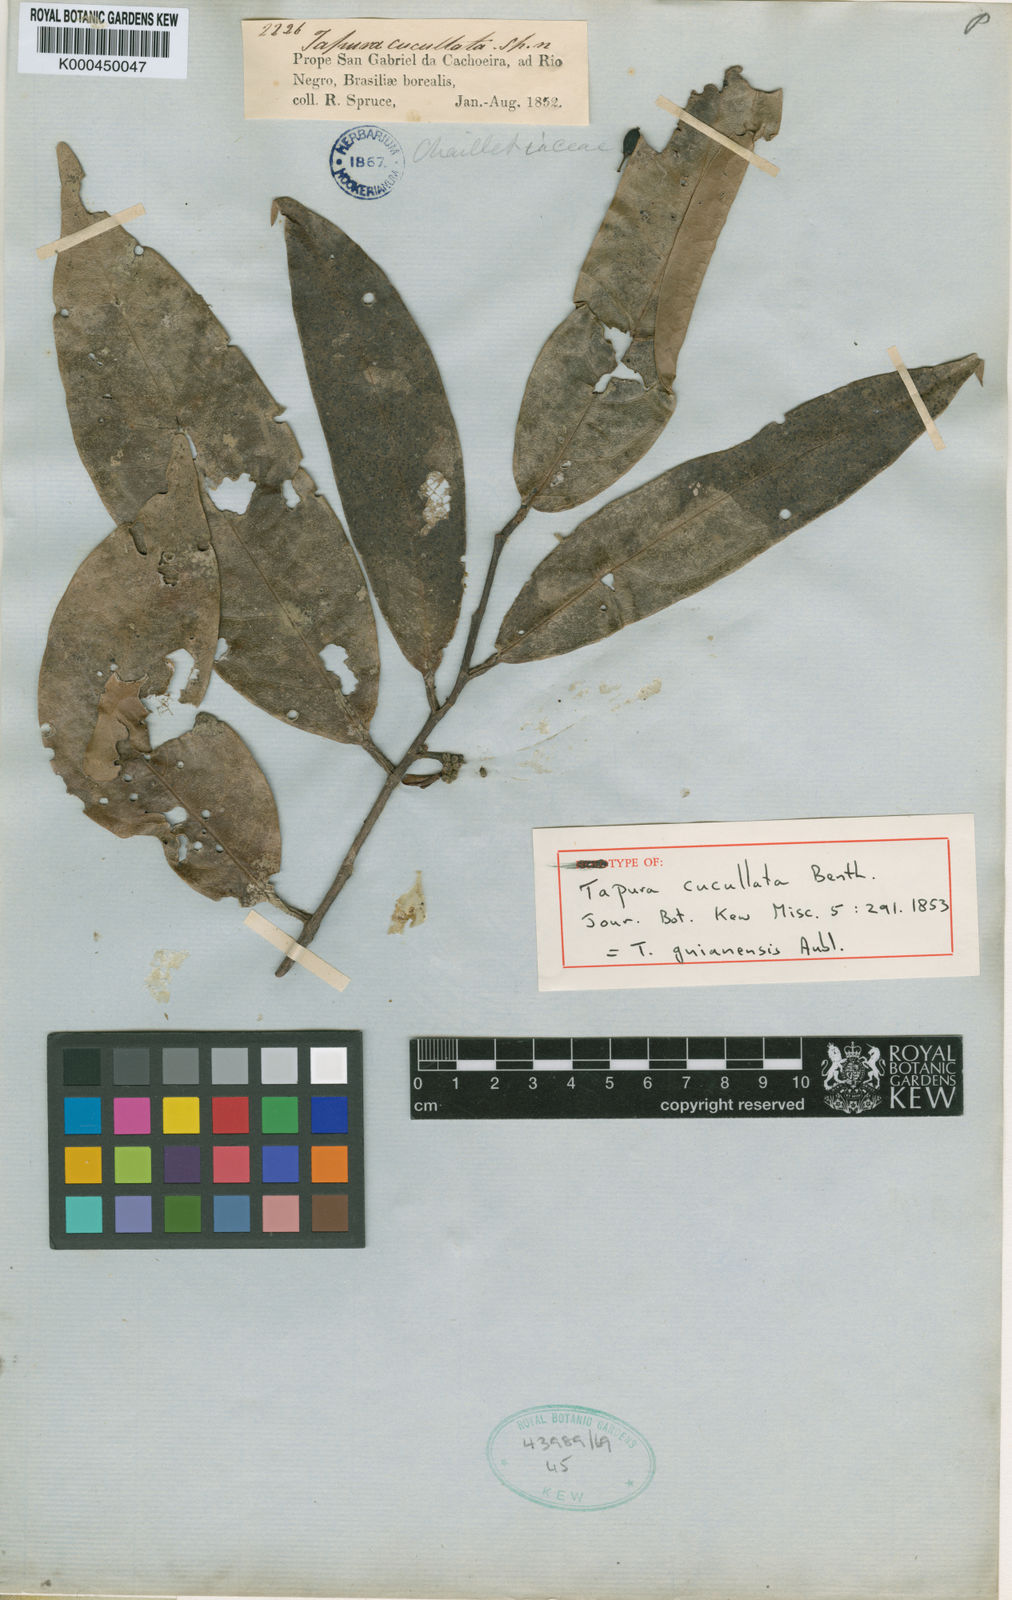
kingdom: Plantae
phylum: Tracheophyta
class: Magnoliopsida
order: Malpighiales
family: Dichapetalaceae
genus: Tapura
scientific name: Tapura guianensis
